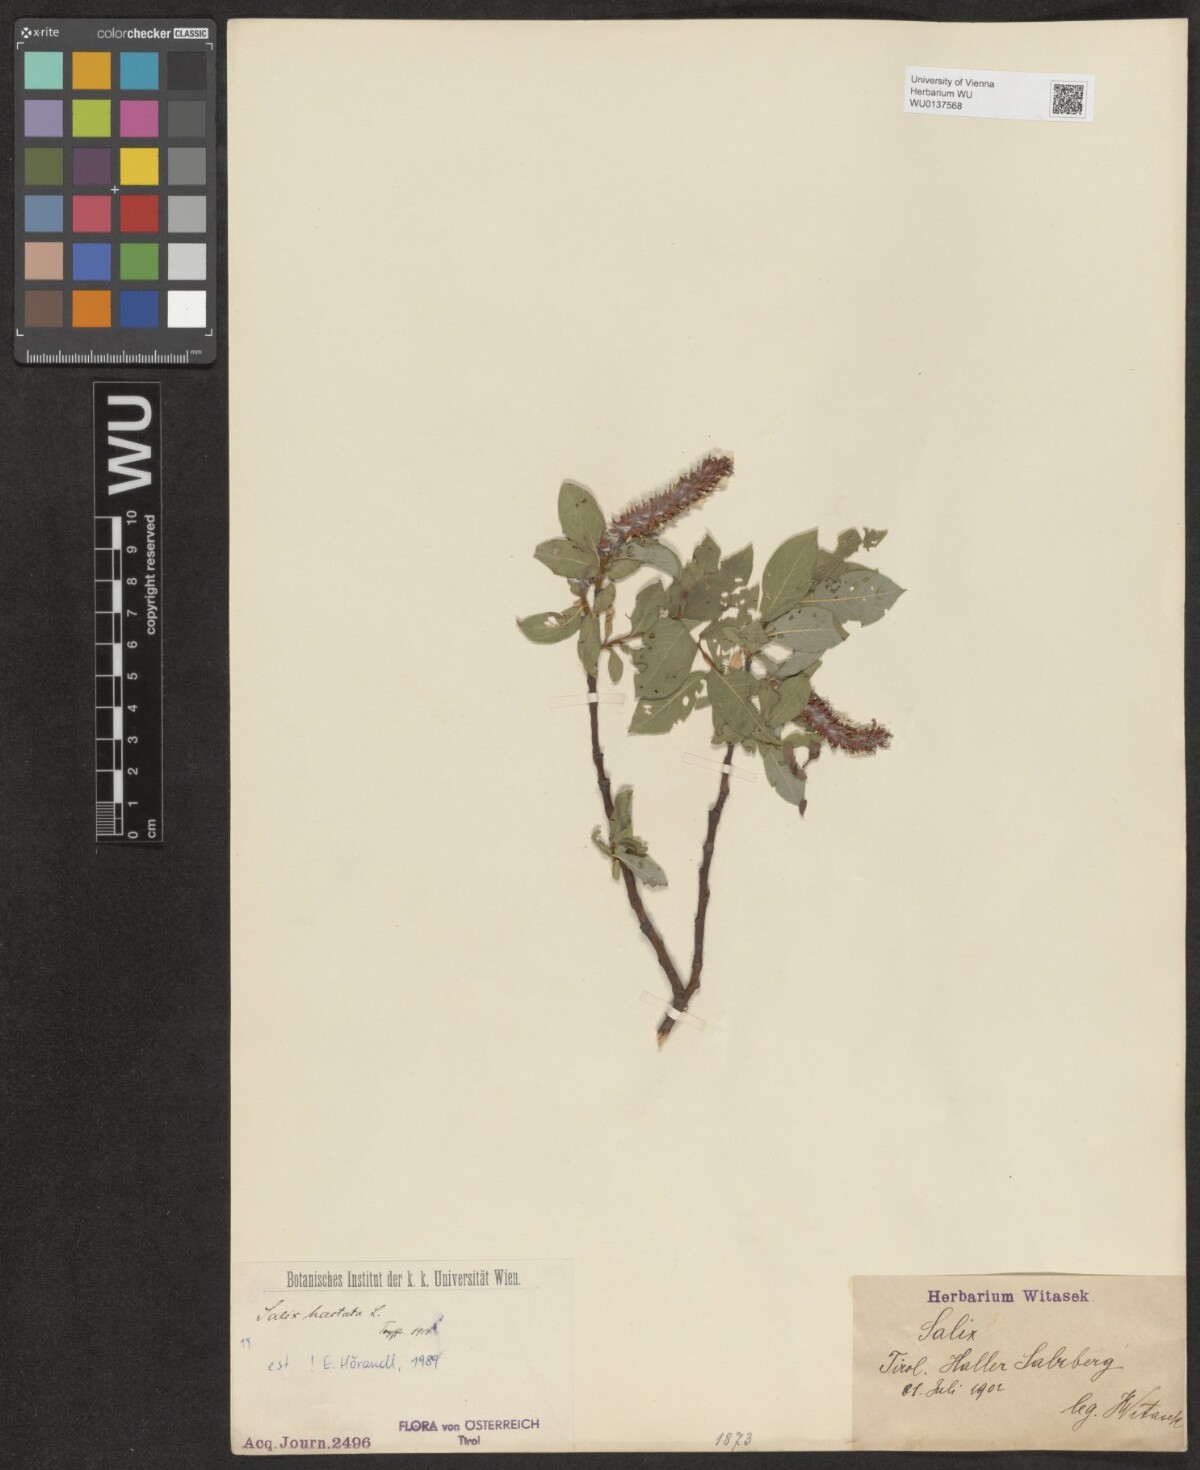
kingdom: Plantae
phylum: Tracheophyta
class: Magnoliopsida
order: Malpighiales
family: Salicaceae
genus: Salix
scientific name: Salix hastata
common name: Halberd willow
